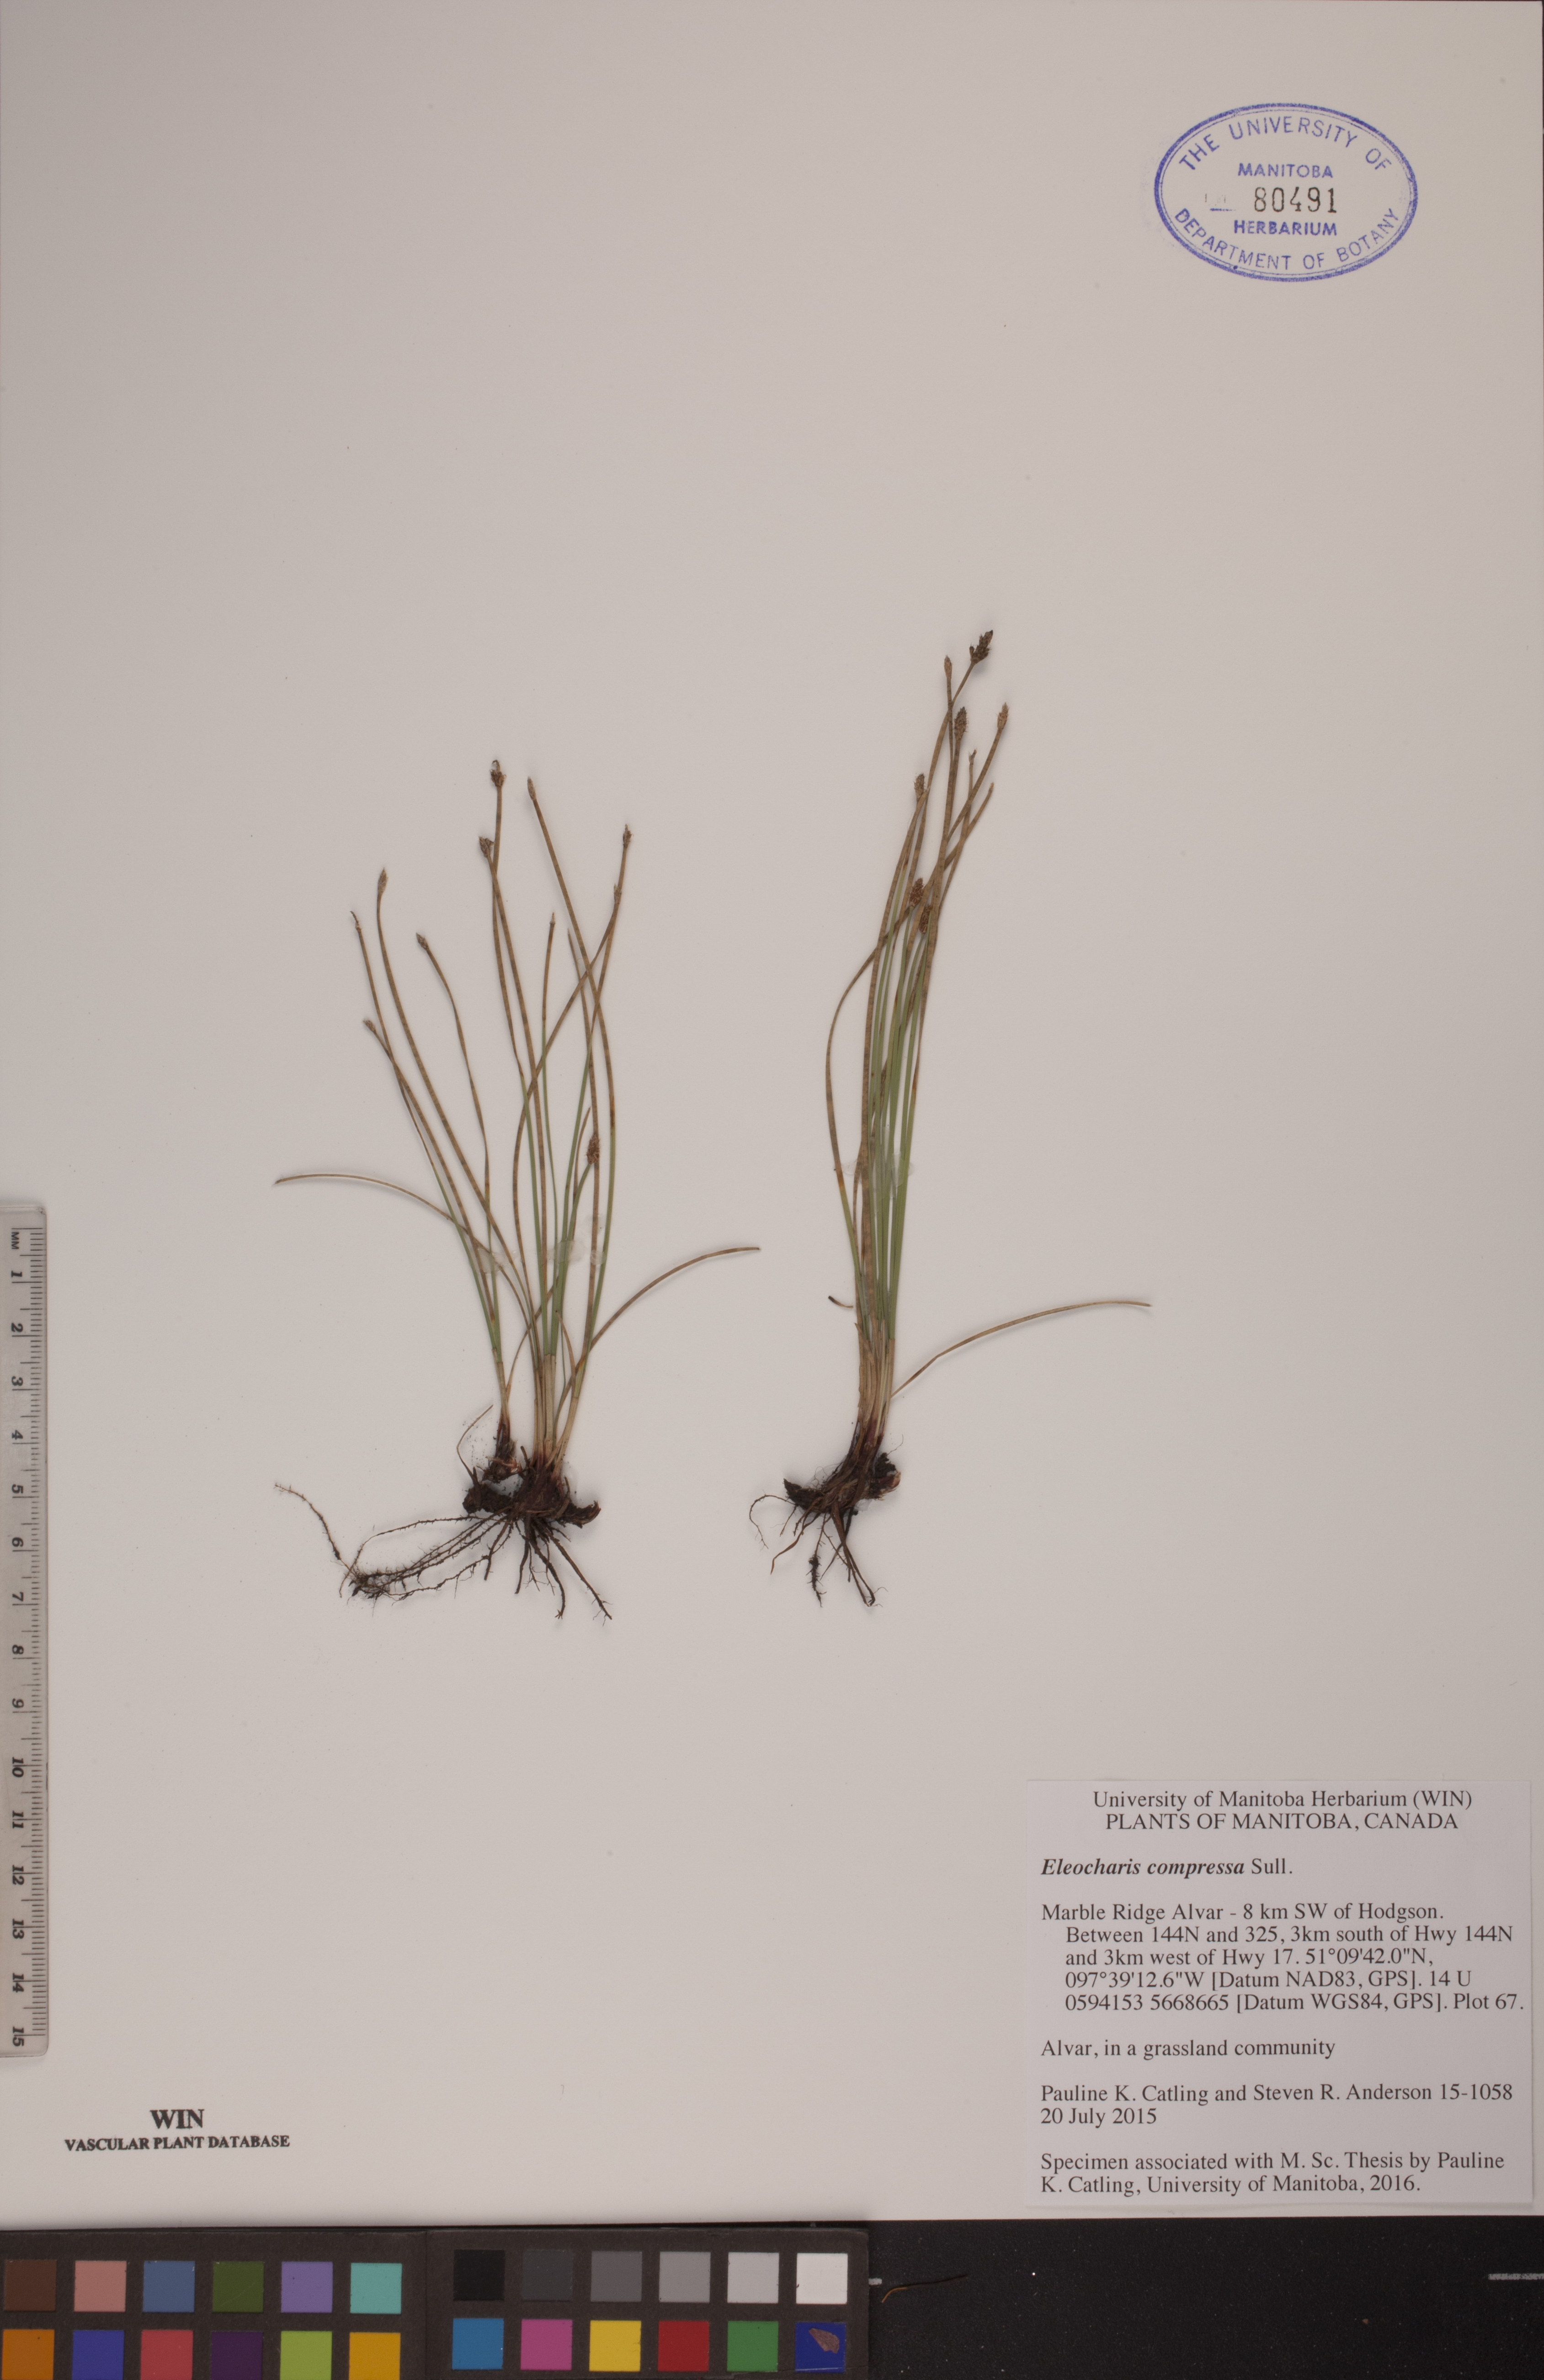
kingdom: Plantae
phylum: Tracheophyta
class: Liliopsida
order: Poales
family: Cyperaceae
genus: Eleocharis
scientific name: Eleocharis compressa
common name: Flat-stem spike-rush
